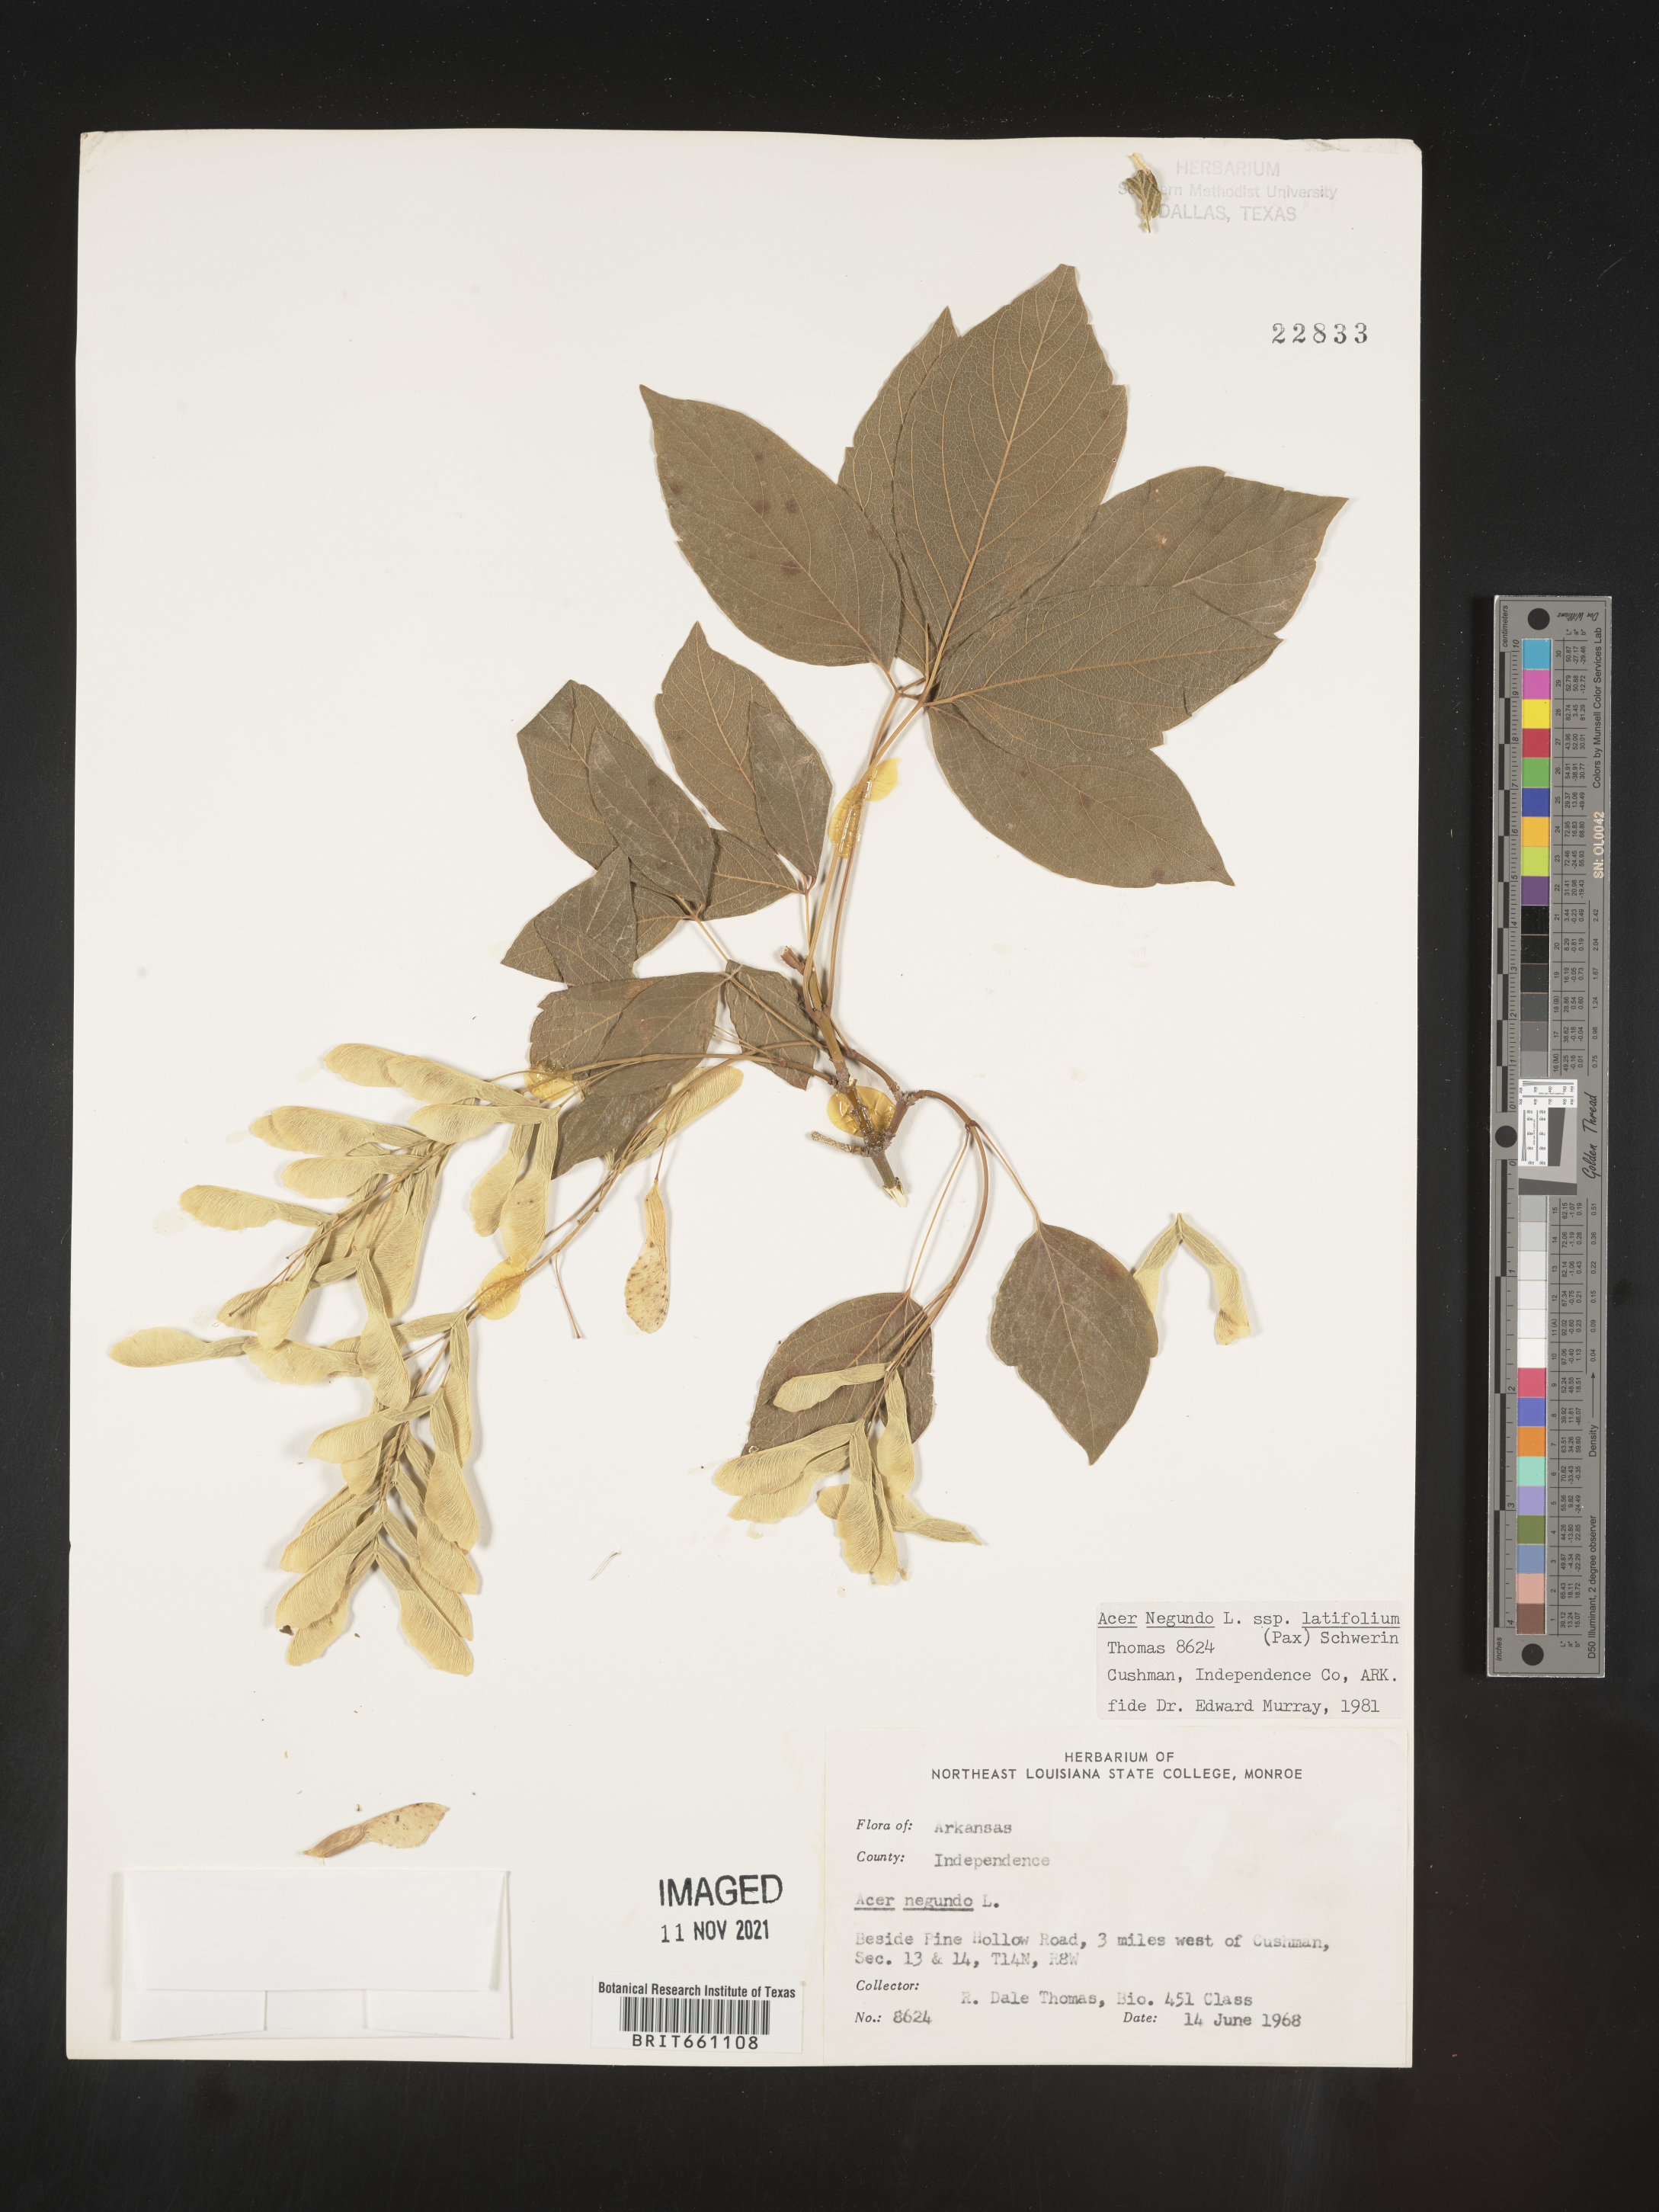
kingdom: Plantae
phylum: Tracheophyta
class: Magnoliopsida
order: Sapindales
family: Sapindaceae
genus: Acer
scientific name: Acer negundo
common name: Ashleaf maple
